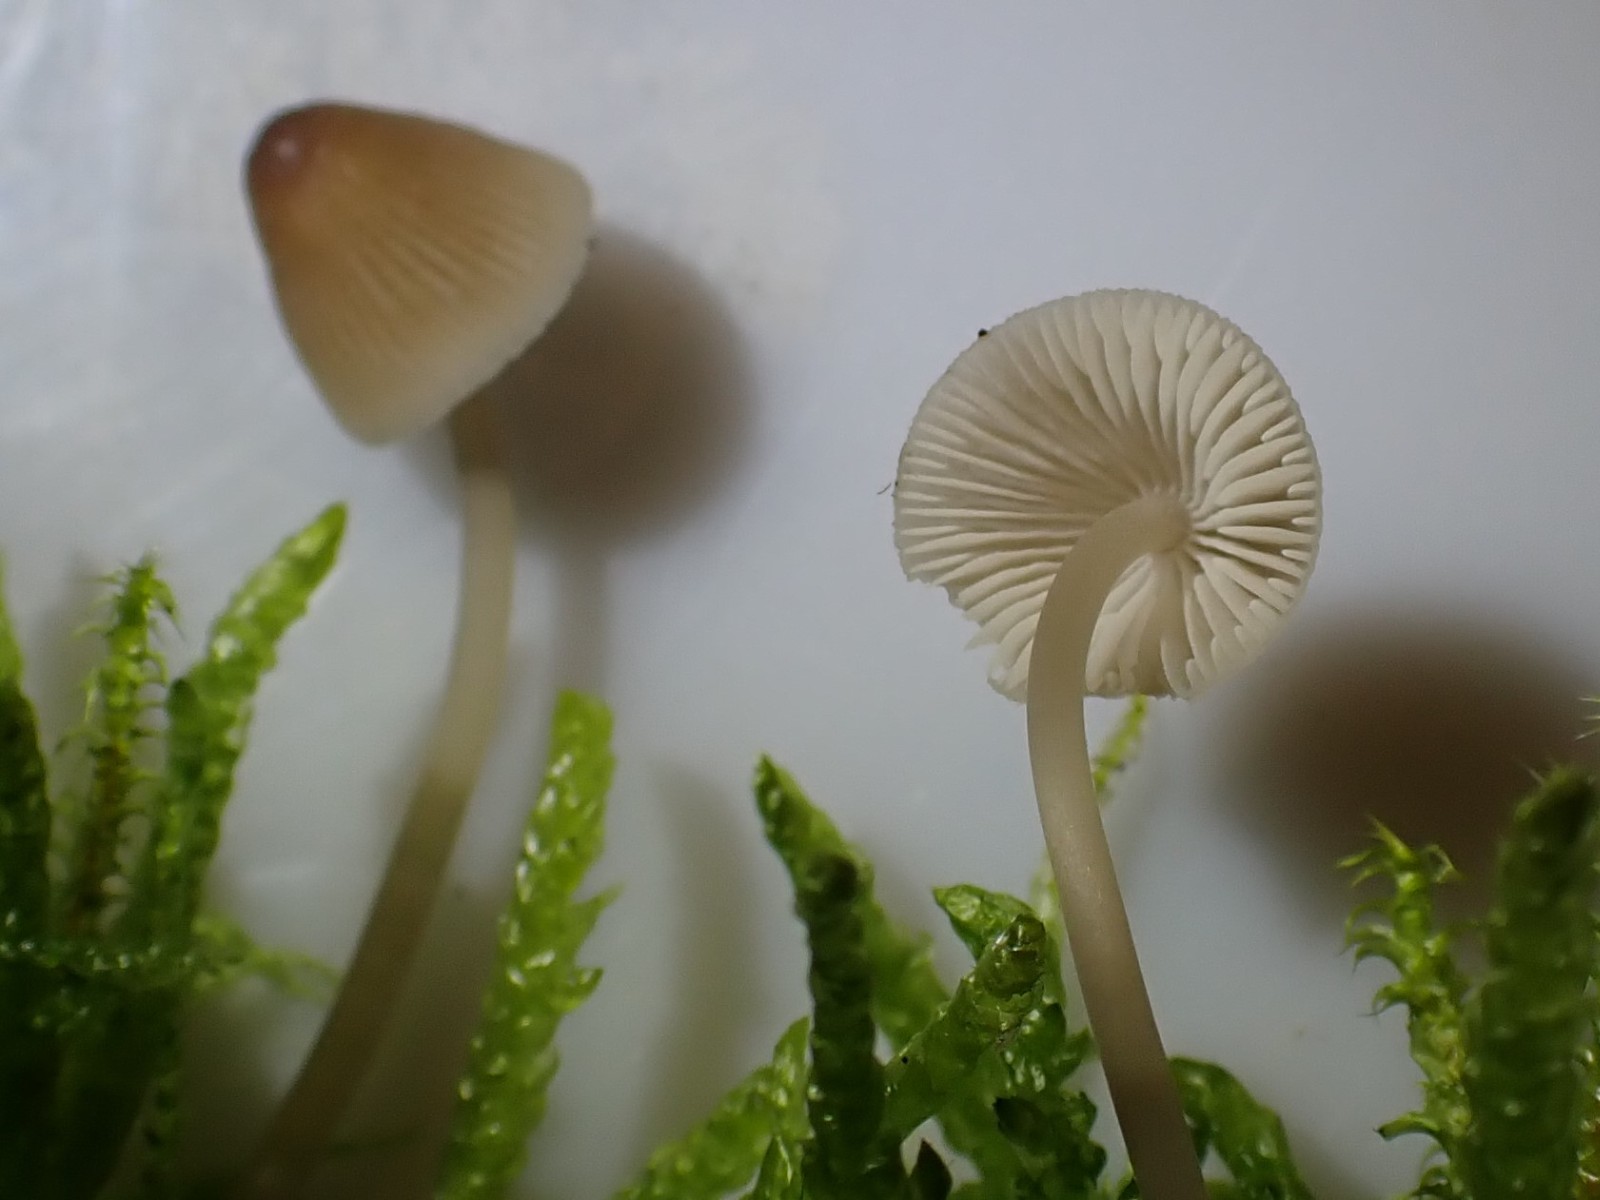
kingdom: Fungi
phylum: Basidiomycota
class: Agaricomycetes
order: Agaricales
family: Mycenaceae
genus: Mycena
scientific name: Mycena metata
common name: rødlig huesvamp
